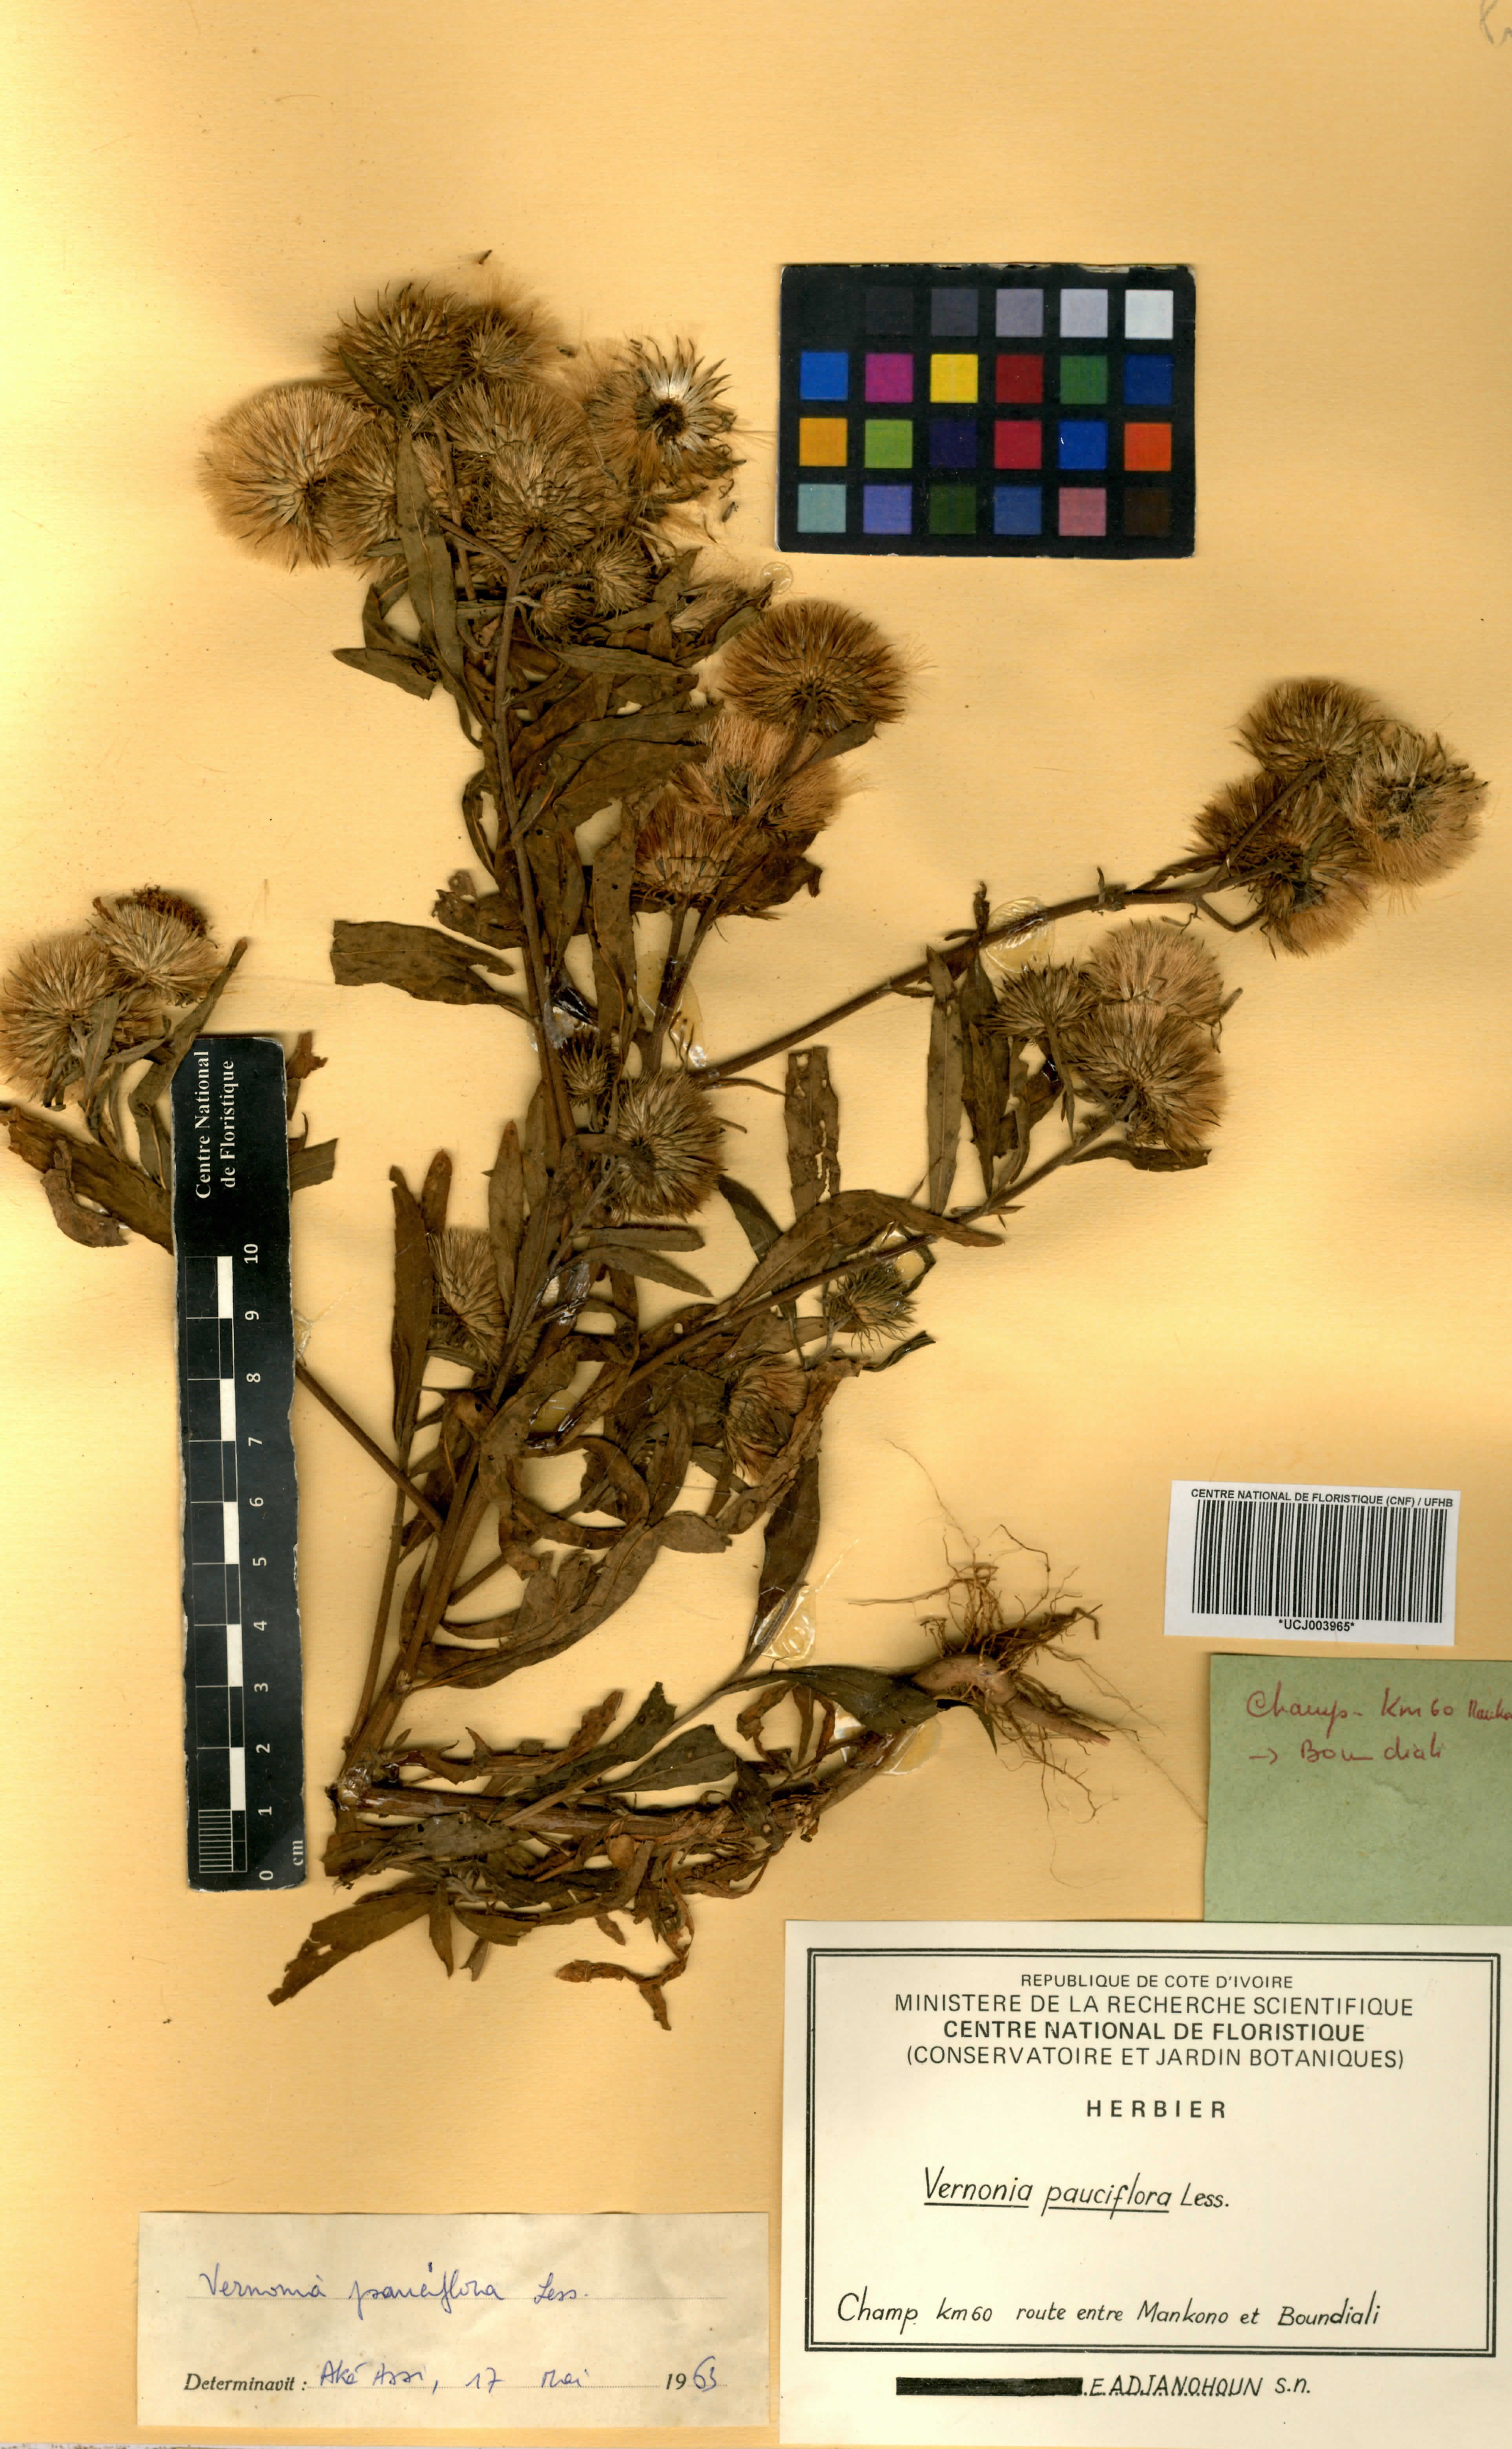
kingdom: Plantae
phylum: Tracheophyta
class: Magnoliopsida
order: Asterales
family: Asteraceae
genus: Vernonia
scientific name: Vernonia galamensis
